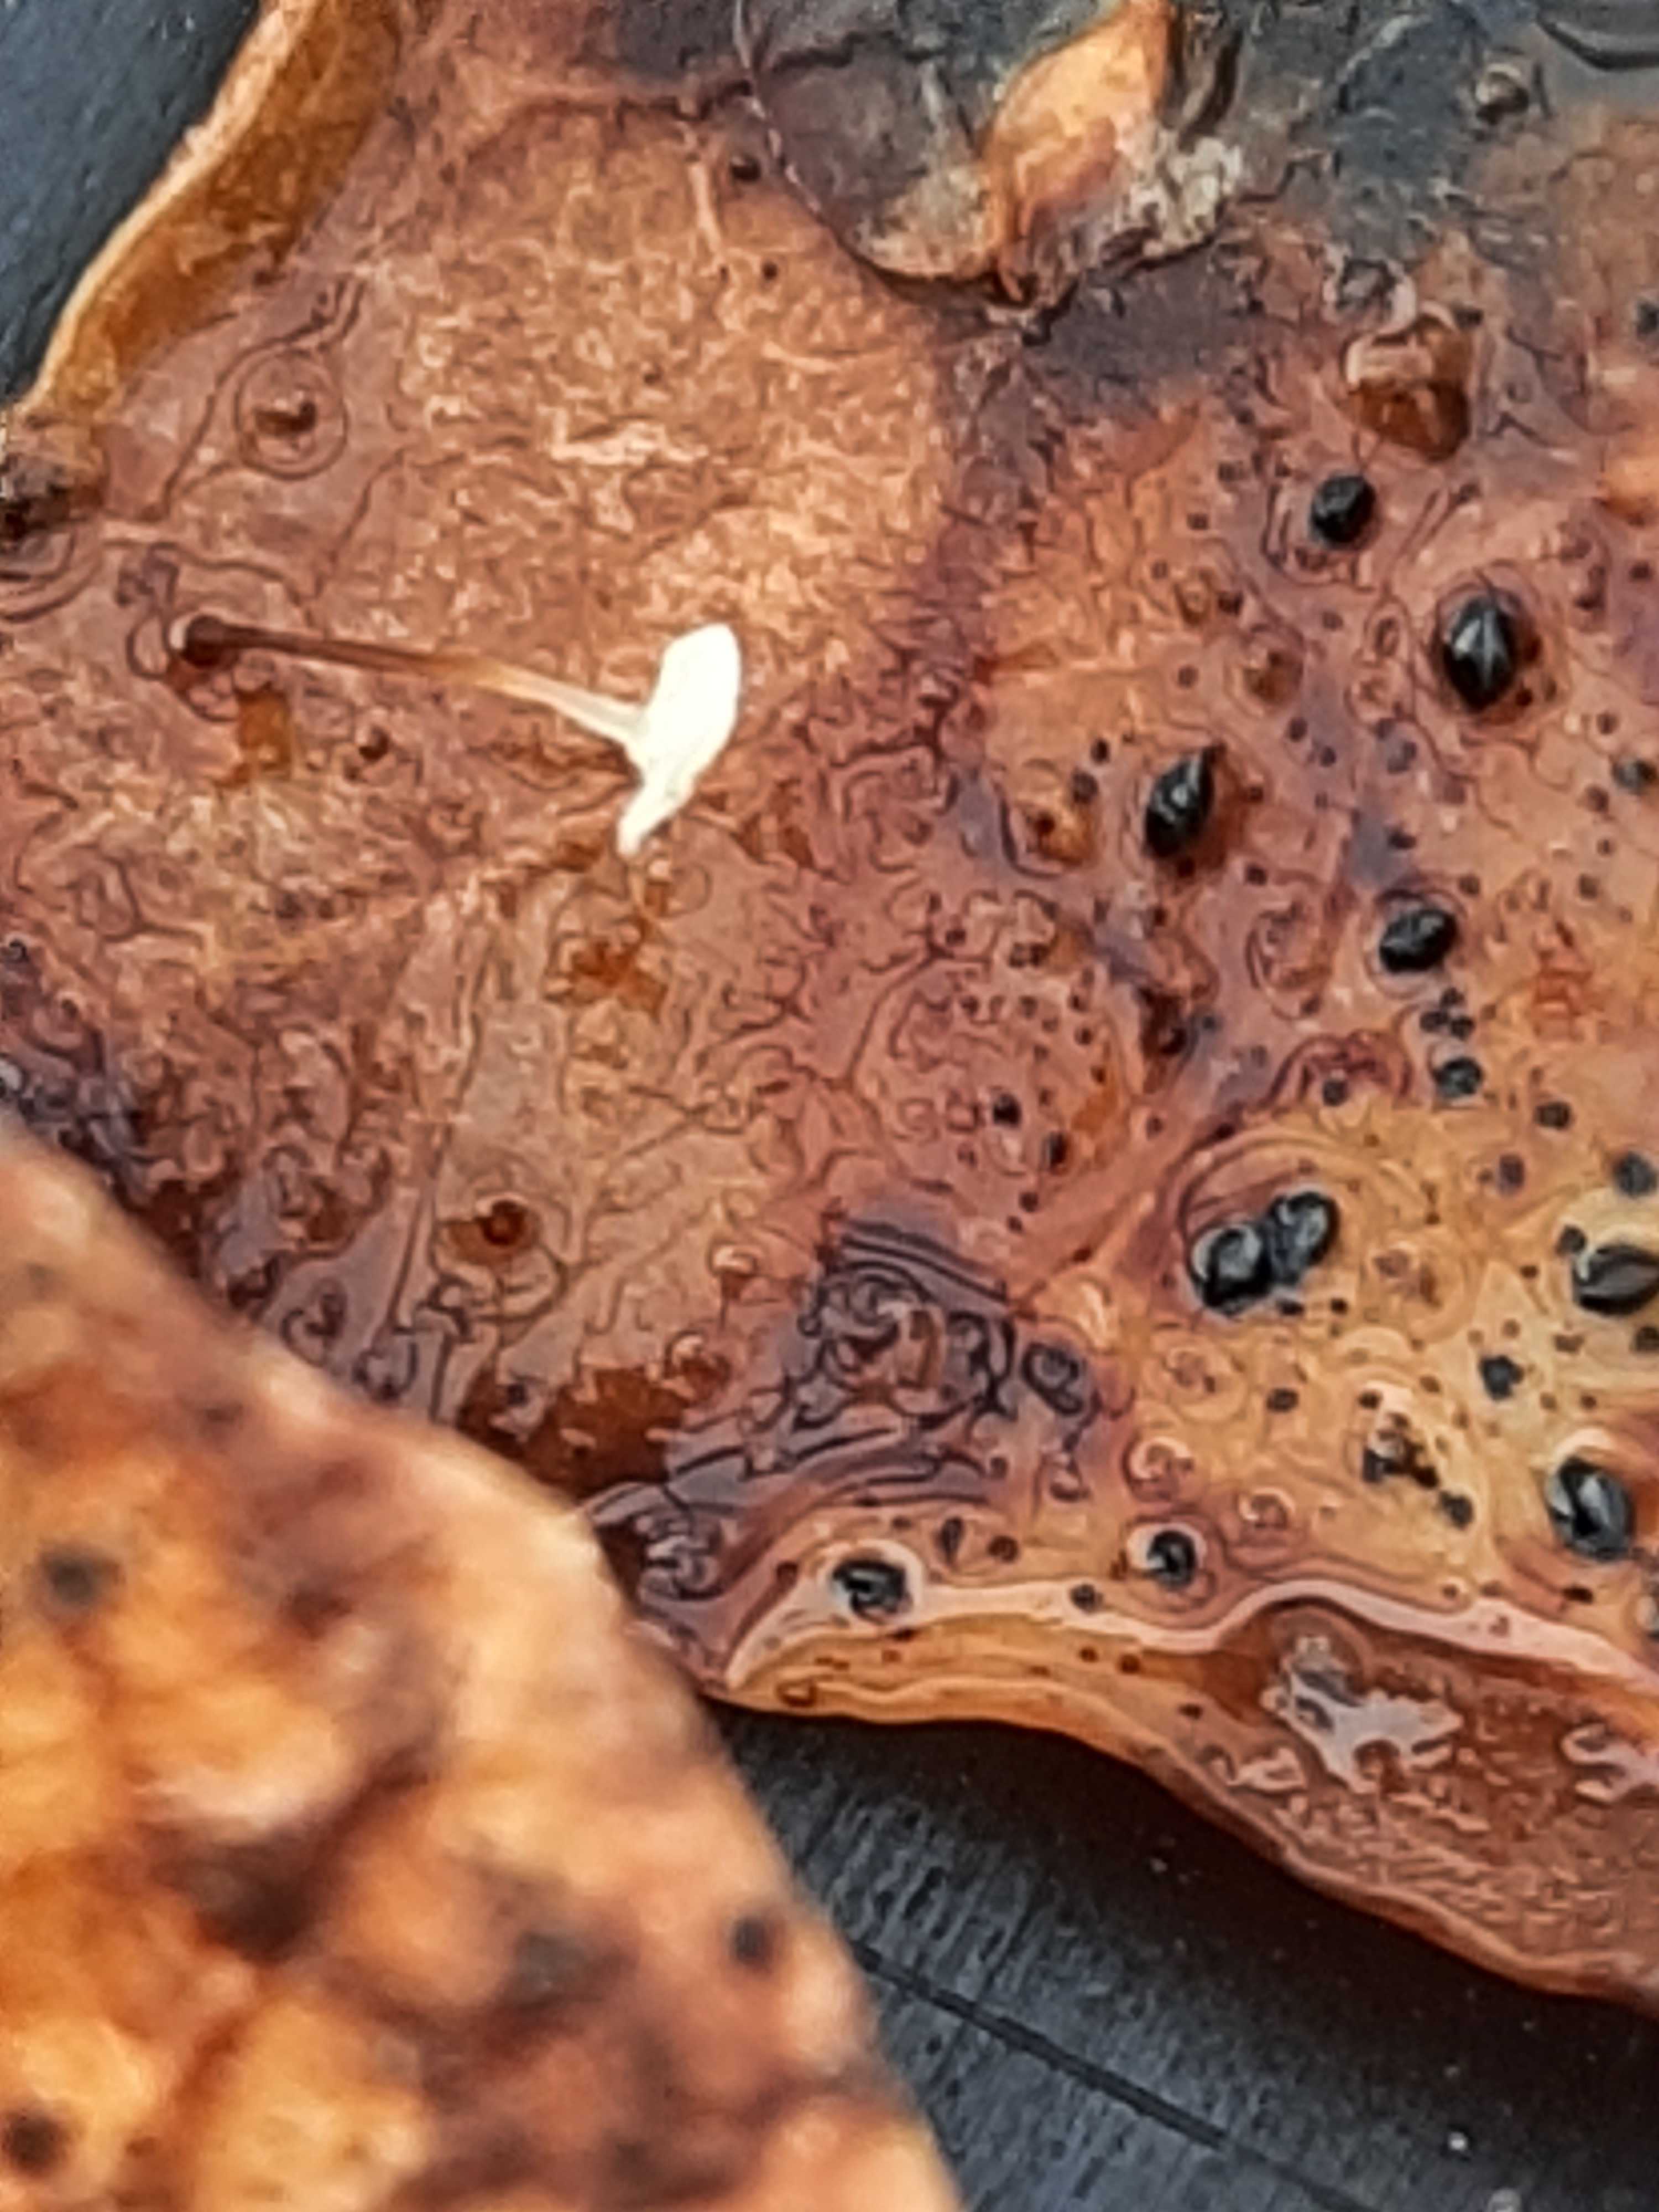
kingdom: Fungi
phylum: Basidiomycota
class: Agaricomycetes
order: Agaricales
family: Marasmiaceae
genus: Marasmius
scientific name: Marasmius epiphylloides
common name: vedbend-bruskhat
